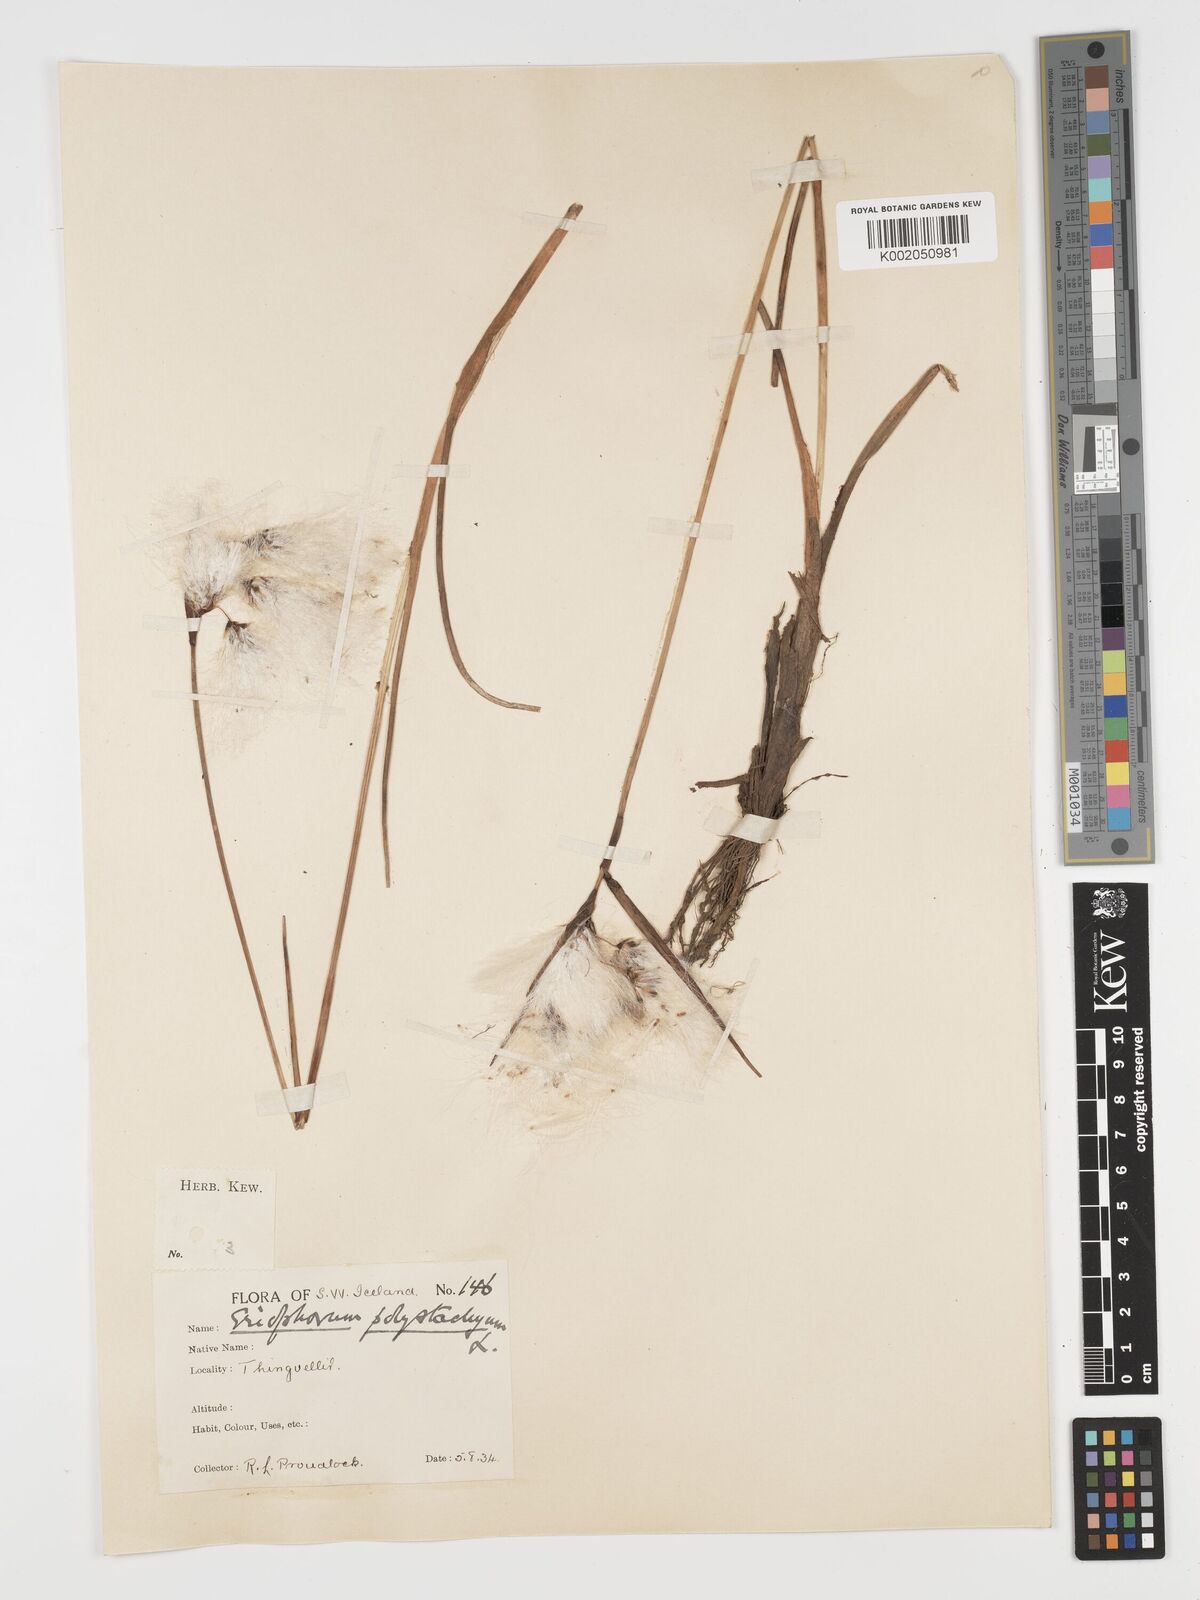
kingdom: Plantae
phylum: Tracheophyta
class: Liliopsida
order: Poales
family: Cyperaceae
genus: Eriophorum
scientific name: Eriophorum angustifolium
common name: Common cottongrass
